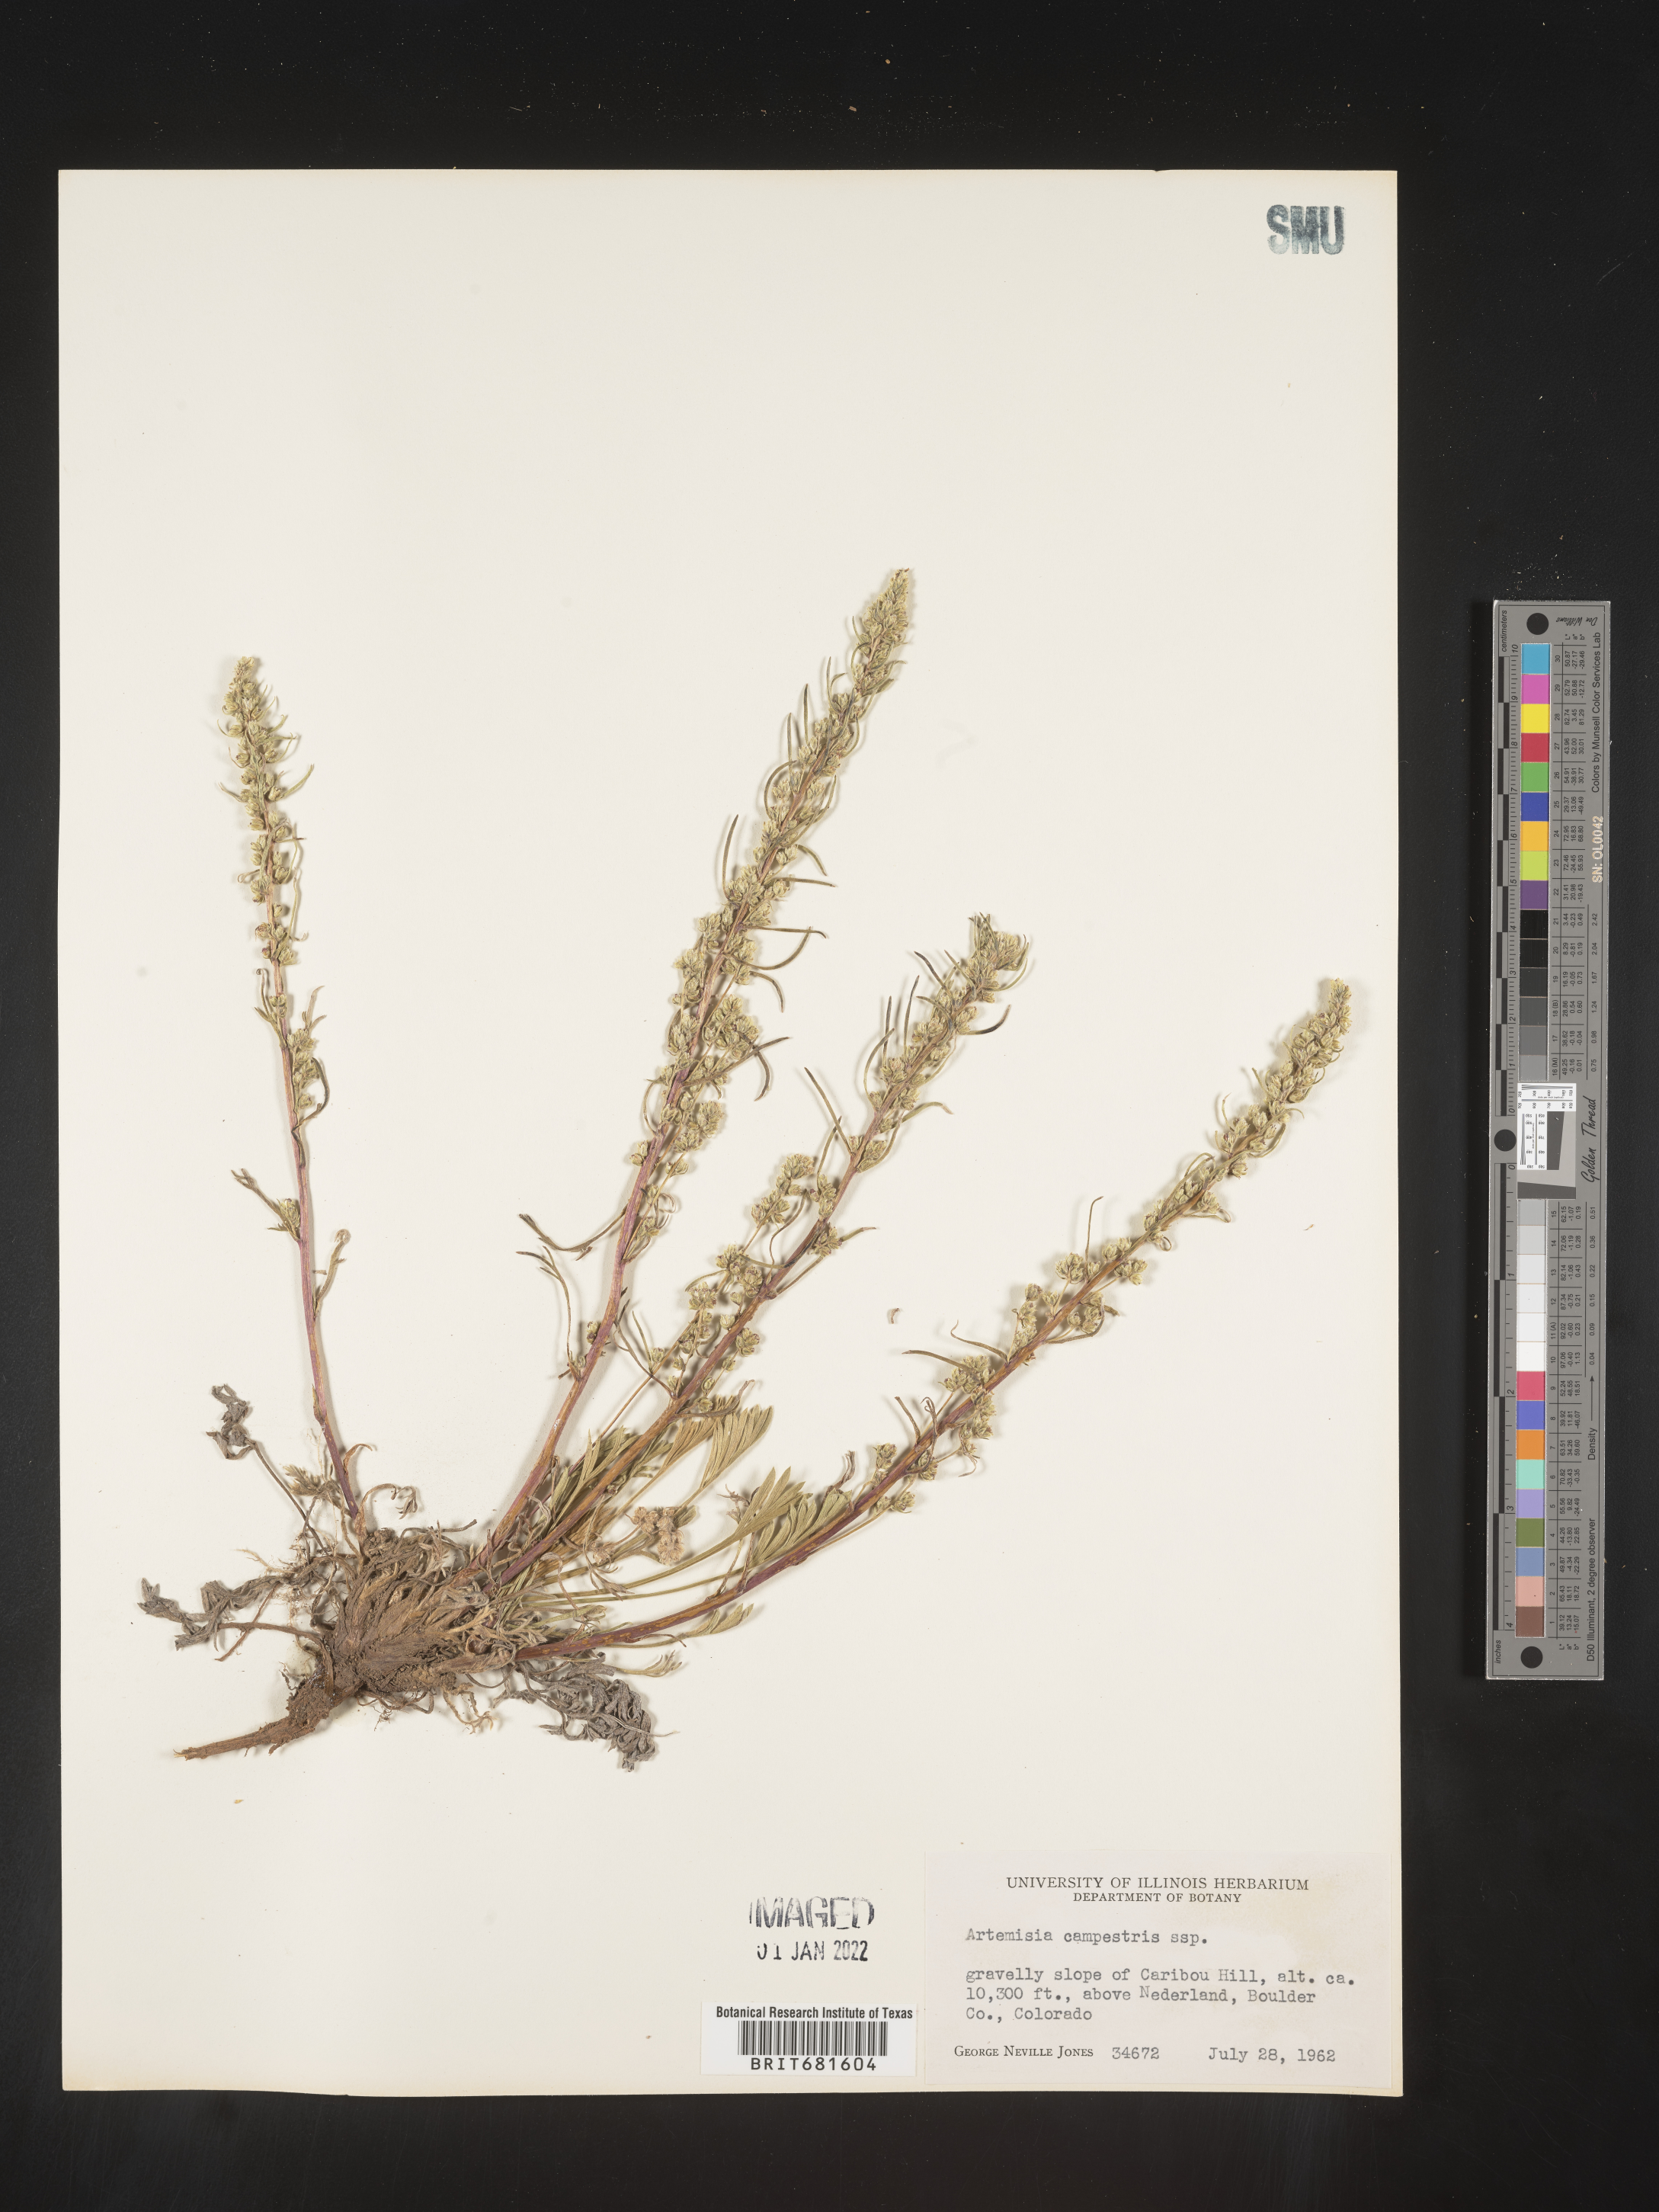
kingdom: Plantae
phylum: Tracheophyta
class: Magnoliopsida
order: Asterales
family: Asteraceae
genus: Artemisia
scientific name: Artemisia campestris
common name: Field wormwood
